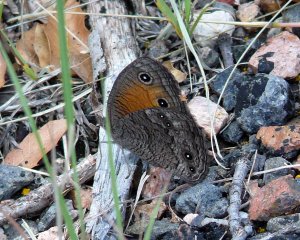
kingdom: Animalia
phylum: Arthropoda
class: Insecta
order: Lepidoptera
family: Nymphalidae
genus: Cercyonis
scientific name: Cercyonis meadi
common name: Mead's Wood-Nymph
